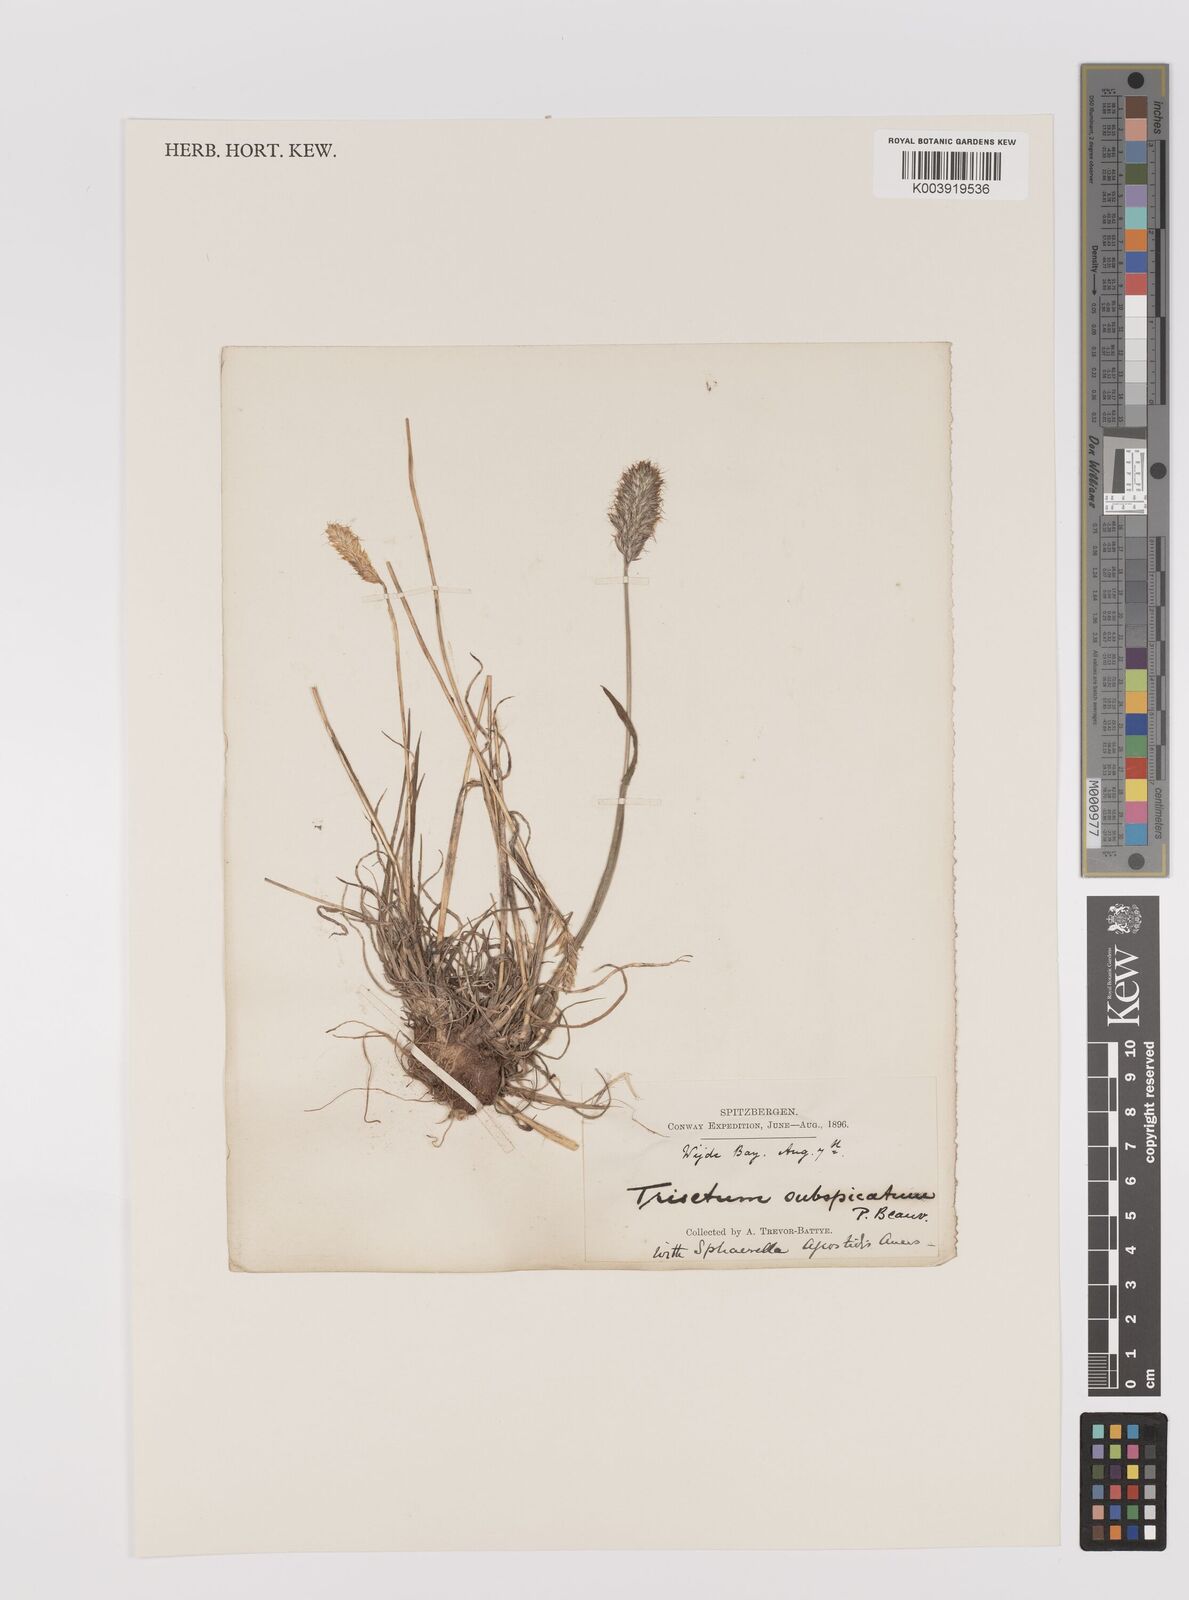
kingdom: Plantae
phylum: Tracheophyta
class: Liliopsida
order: Poales
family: Poaceae
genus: Koeleria
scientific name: Koeleria spicata
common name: Mountain trisetum
